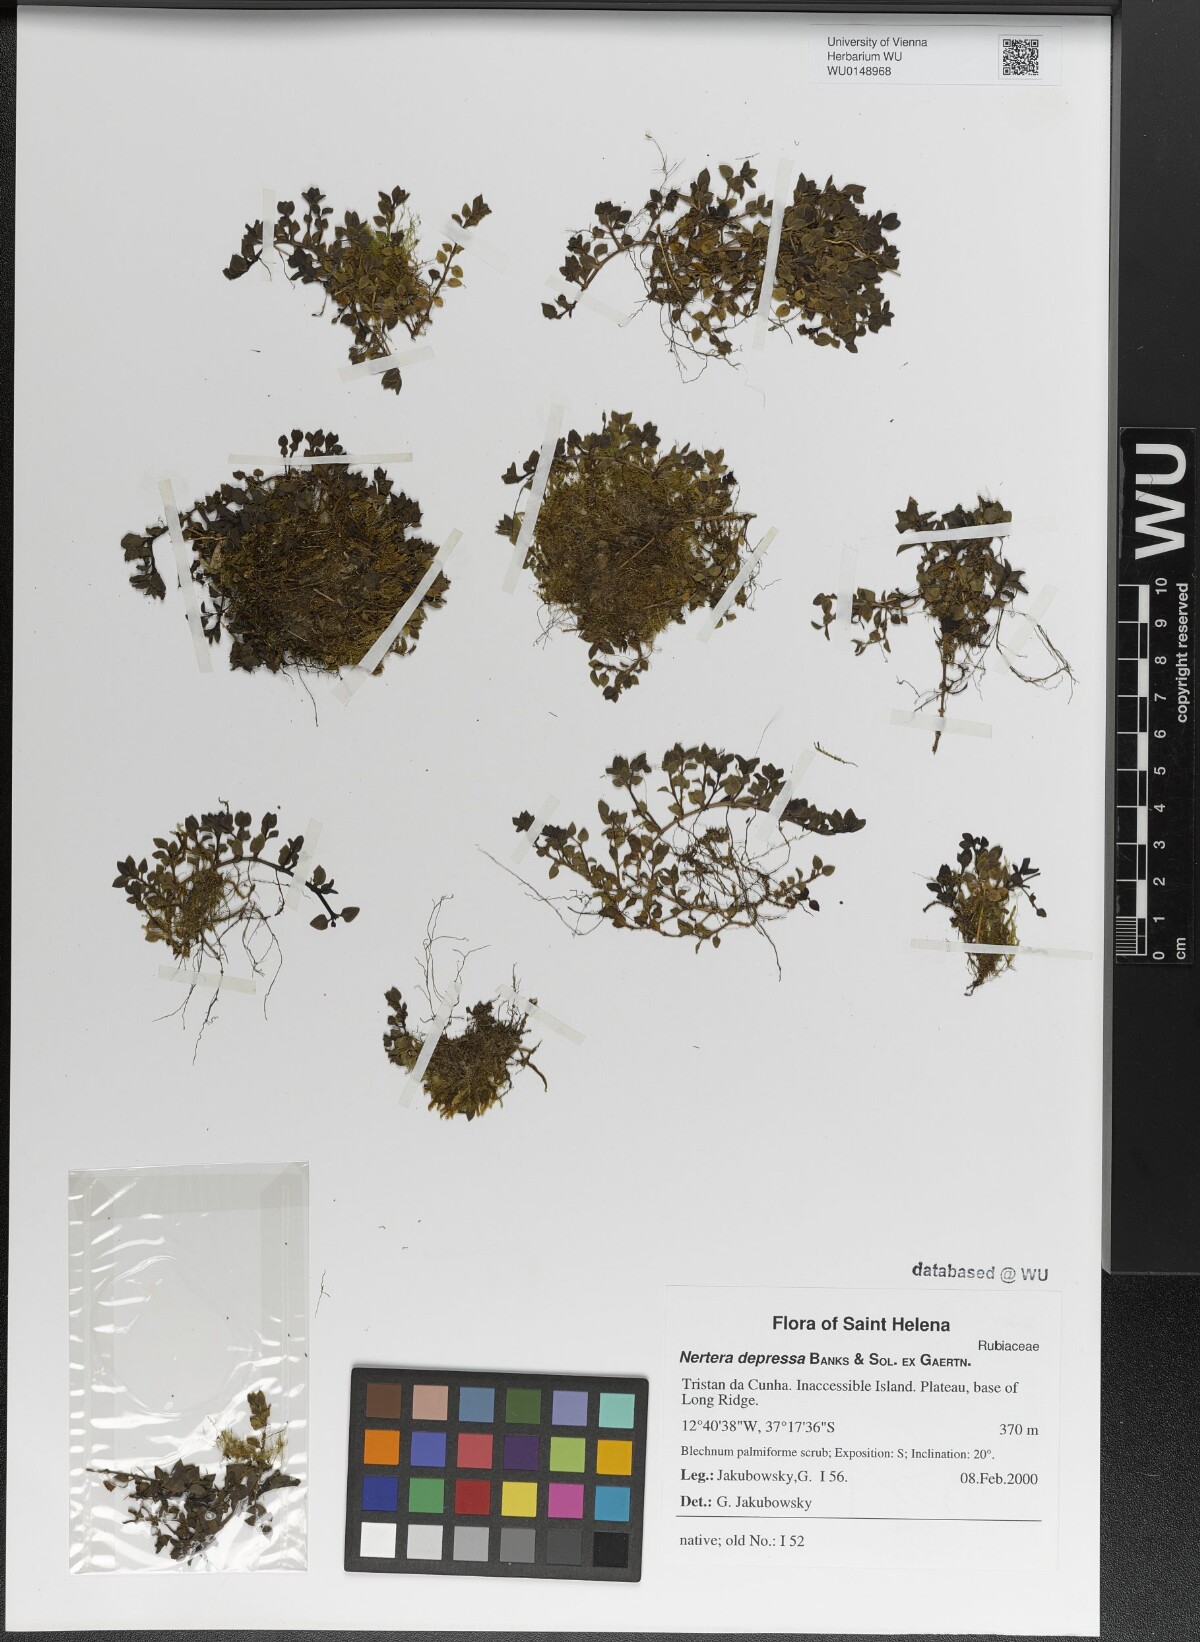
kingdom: Plantae
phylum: Tracheophyta
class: Magnoliopsida
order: Gentianales
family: Rubiaceae
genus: Nertera
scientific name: Nertera granadensis
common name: Beadplant
